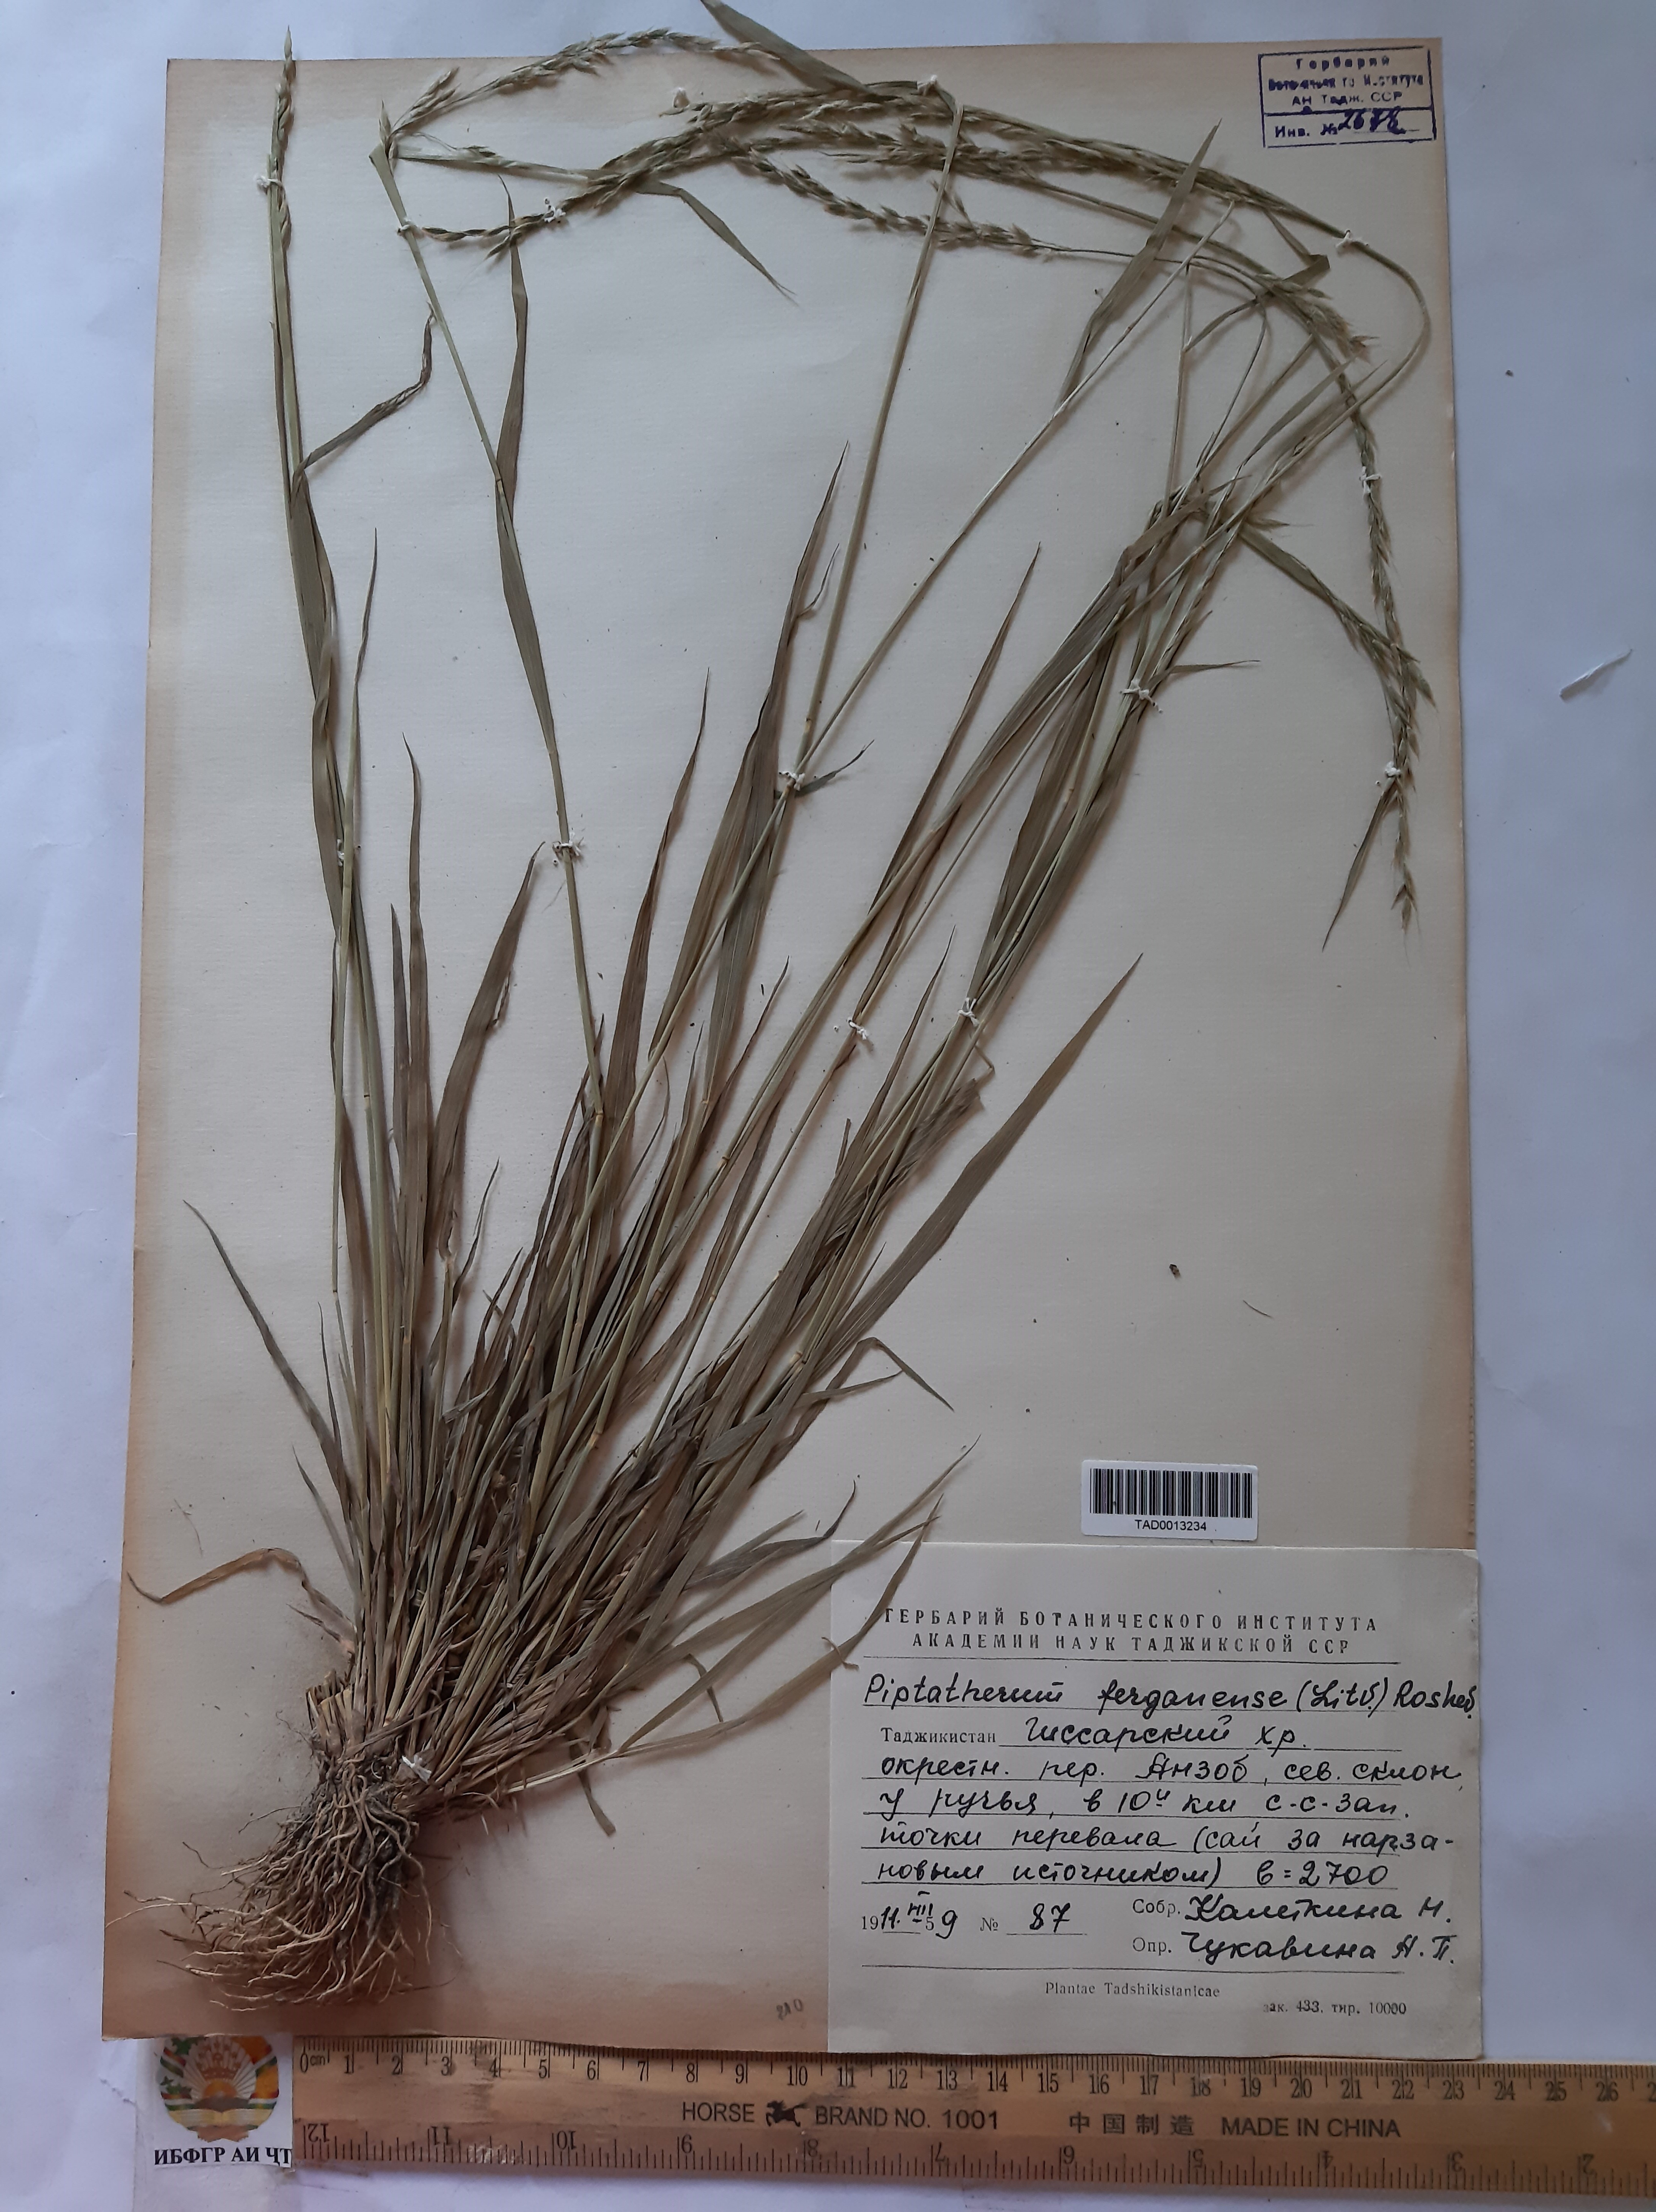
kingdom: Plantae
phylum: Tracheophyta
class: Liliopsida
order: Poales
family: Poaceae
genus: Piptatherum
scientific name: Piptatherum ferganense
